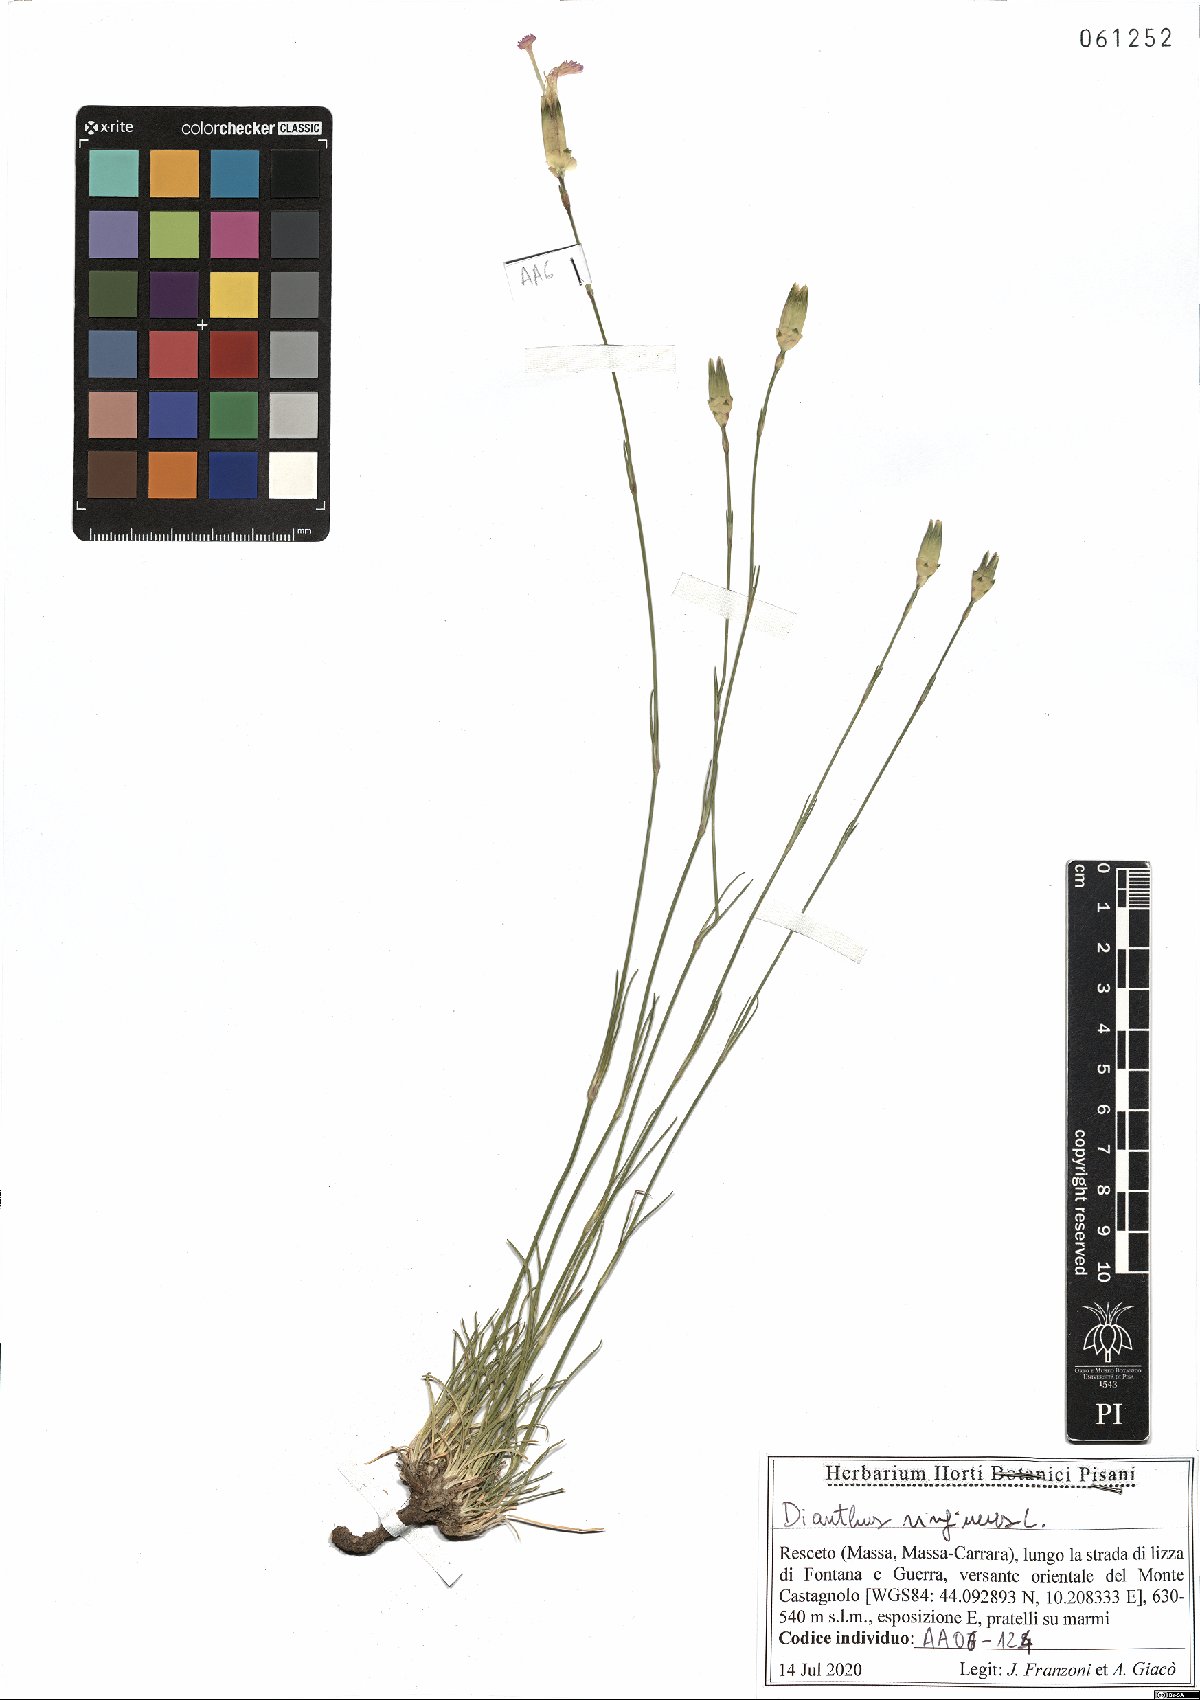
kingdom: Plantae
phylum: Tracheophyta
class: Magnoliopsida
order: Caryophyllales
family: Caryophyllaceae
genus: Dianthus
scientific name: Dianthus virgineus
